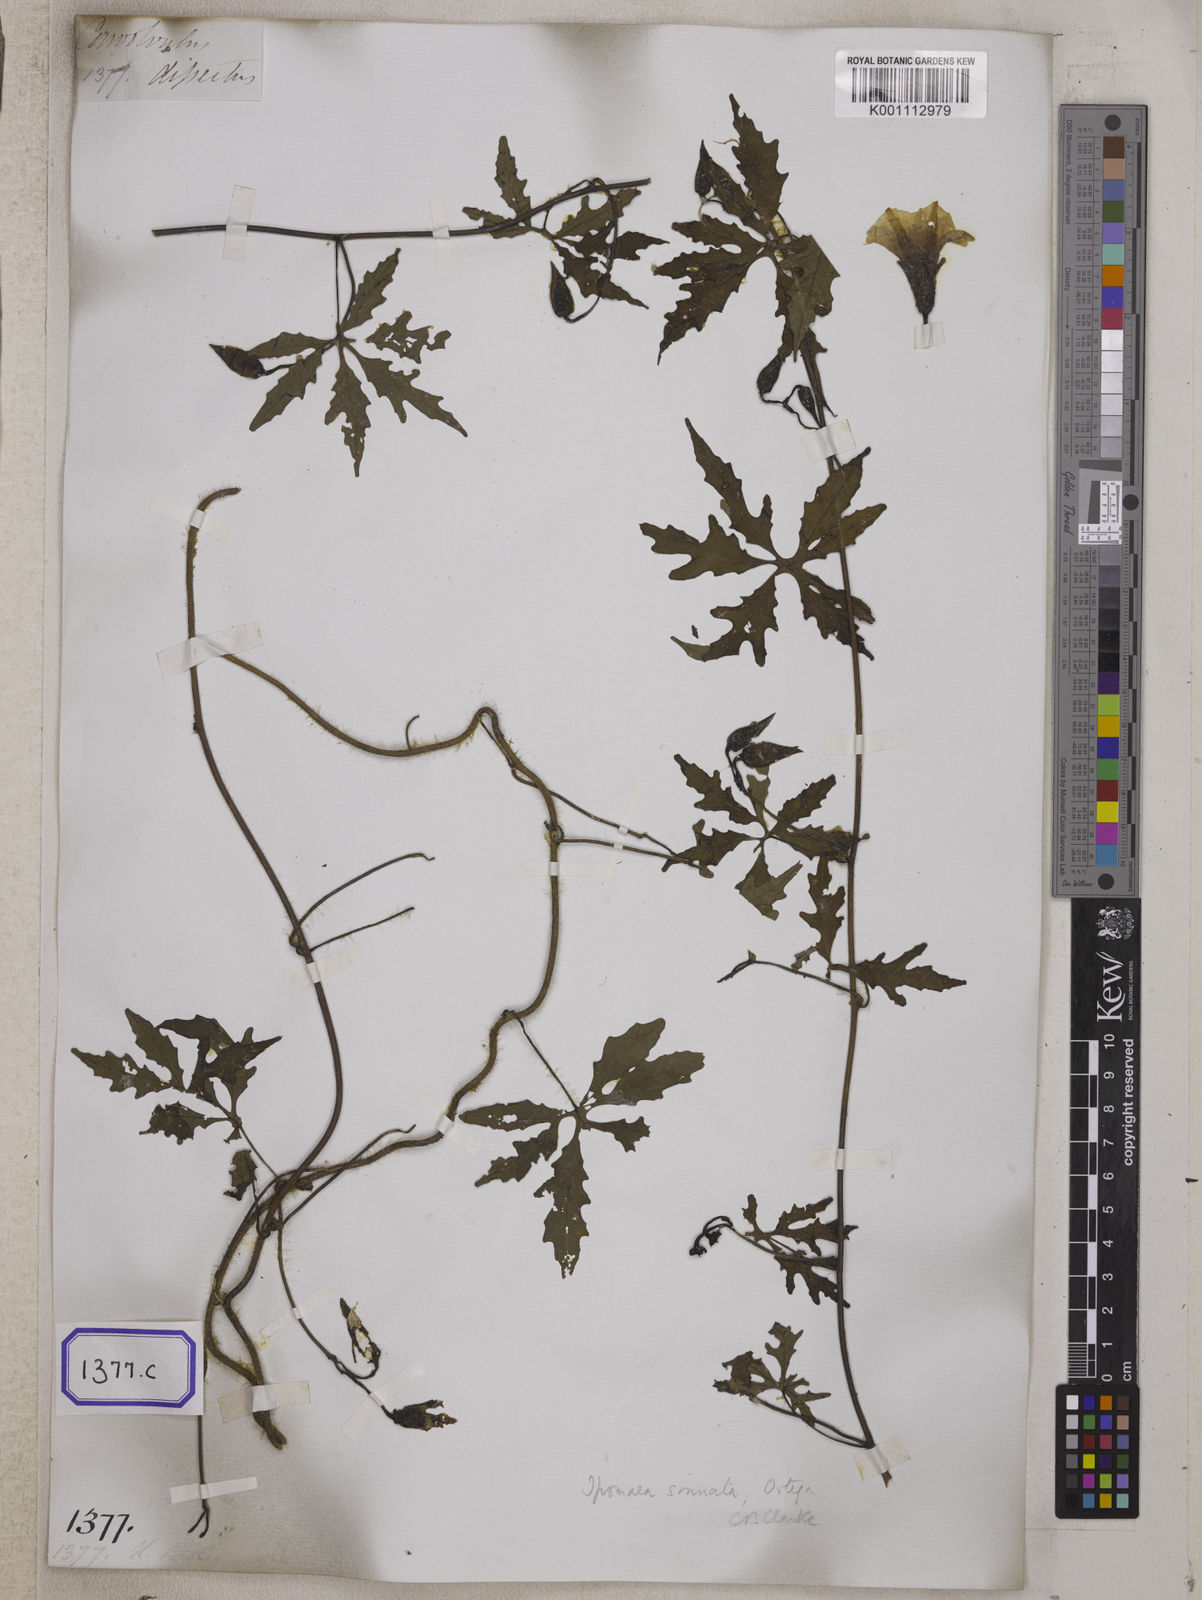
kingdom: Plantae
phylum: Tracheophyta
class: Magnoliopsida
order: Solanales
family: Convolvulaceae
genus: Convolvulus
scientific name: Convolvulus
